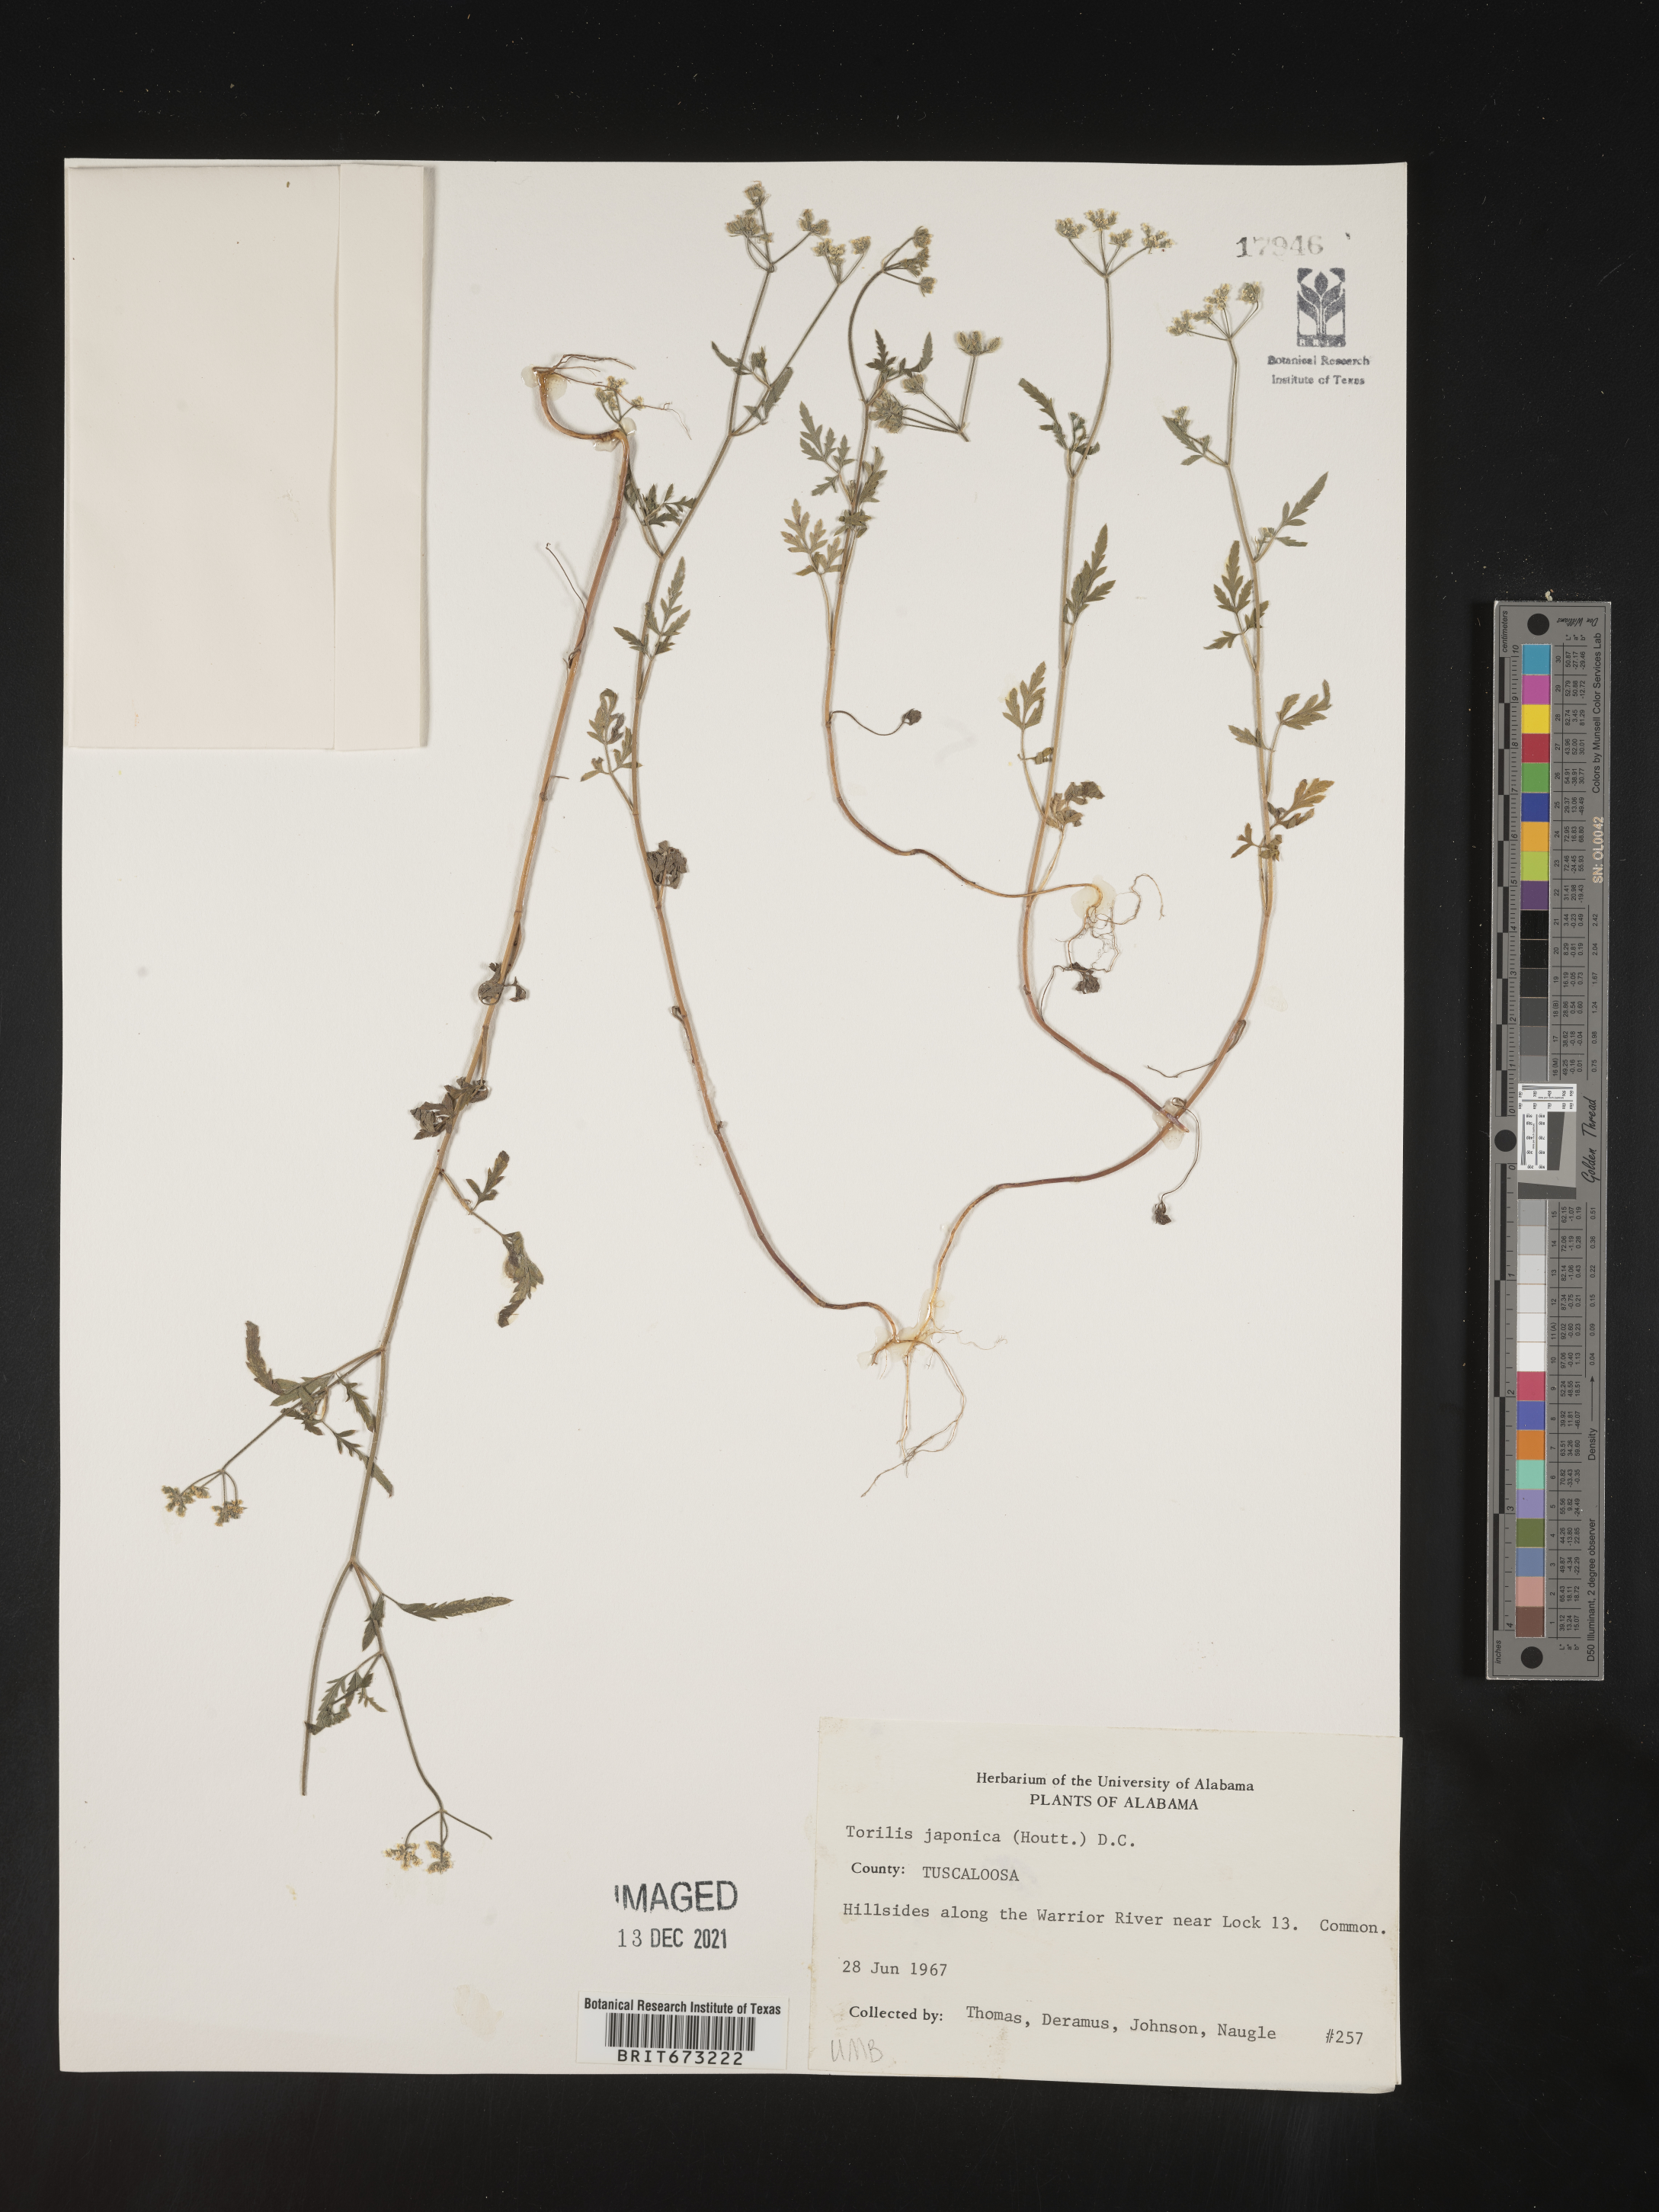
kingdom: Plantae
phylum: Tracheophyta
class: Magnoliopsida
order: Apiales
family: Apiaceae
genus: Torilis
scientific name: Torilis japonica
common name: Upright hedge-parsley
